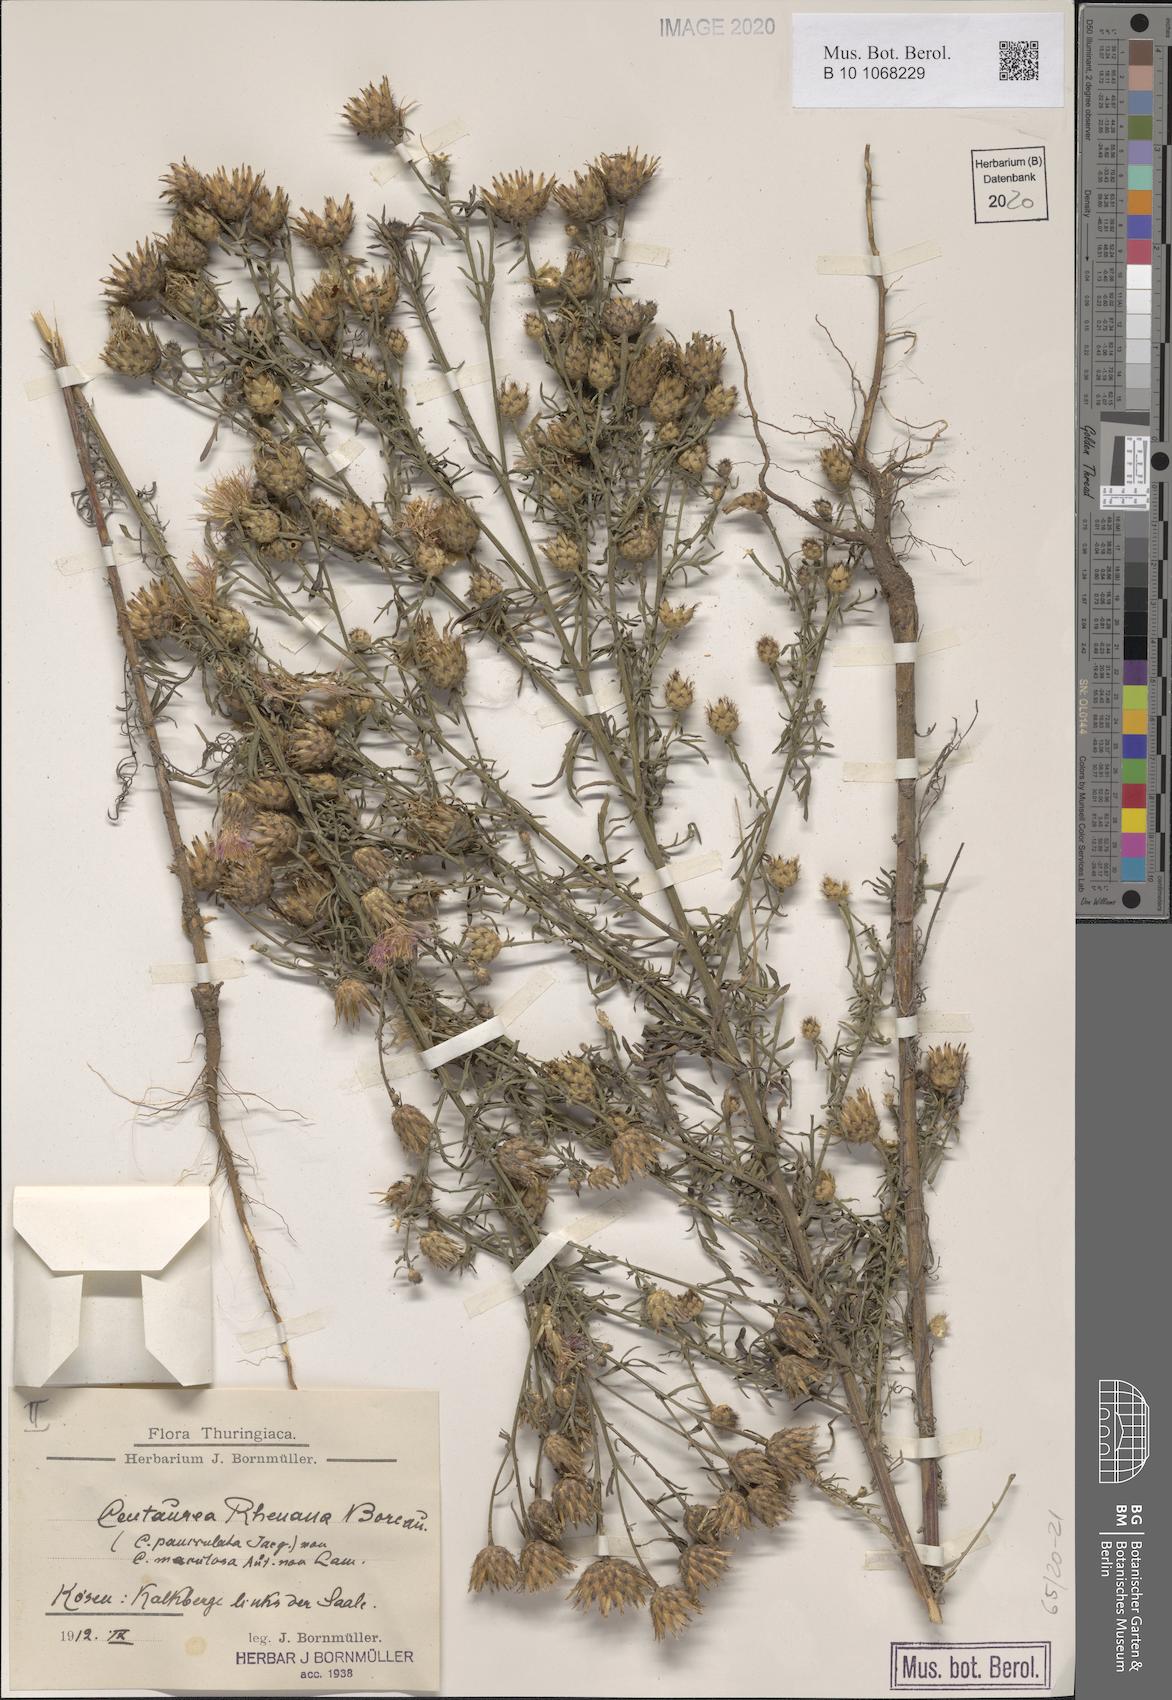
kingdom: Plantae
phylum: Tracheophyta
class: Magnoliopsida
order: Asterales
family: Asteraceae
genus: Centaurea
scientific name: Centaurea stoebe
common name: Spotted knapweed
